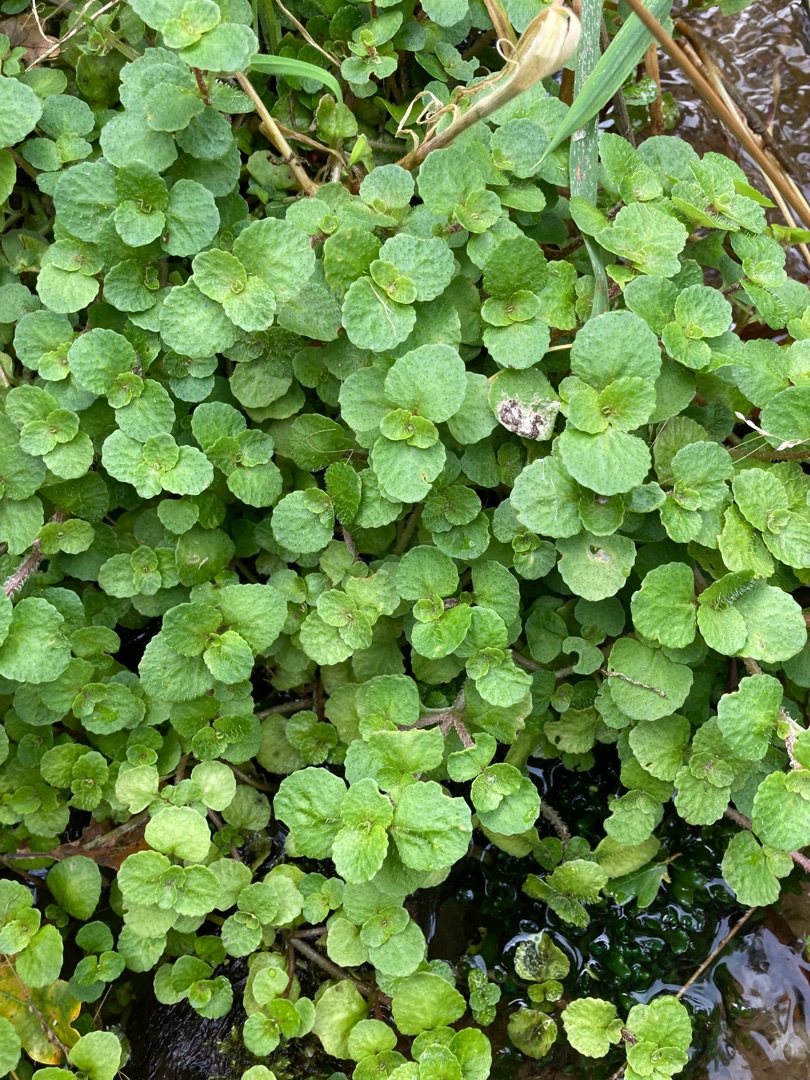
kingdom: Plantae
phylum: Tracheophyta
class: Magnoliopsida
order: Saxifragales
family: Saxifragaceae
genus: Chrysosplenium
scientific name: Chrysosplenium oppositifolium
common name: Småbladet milturt
